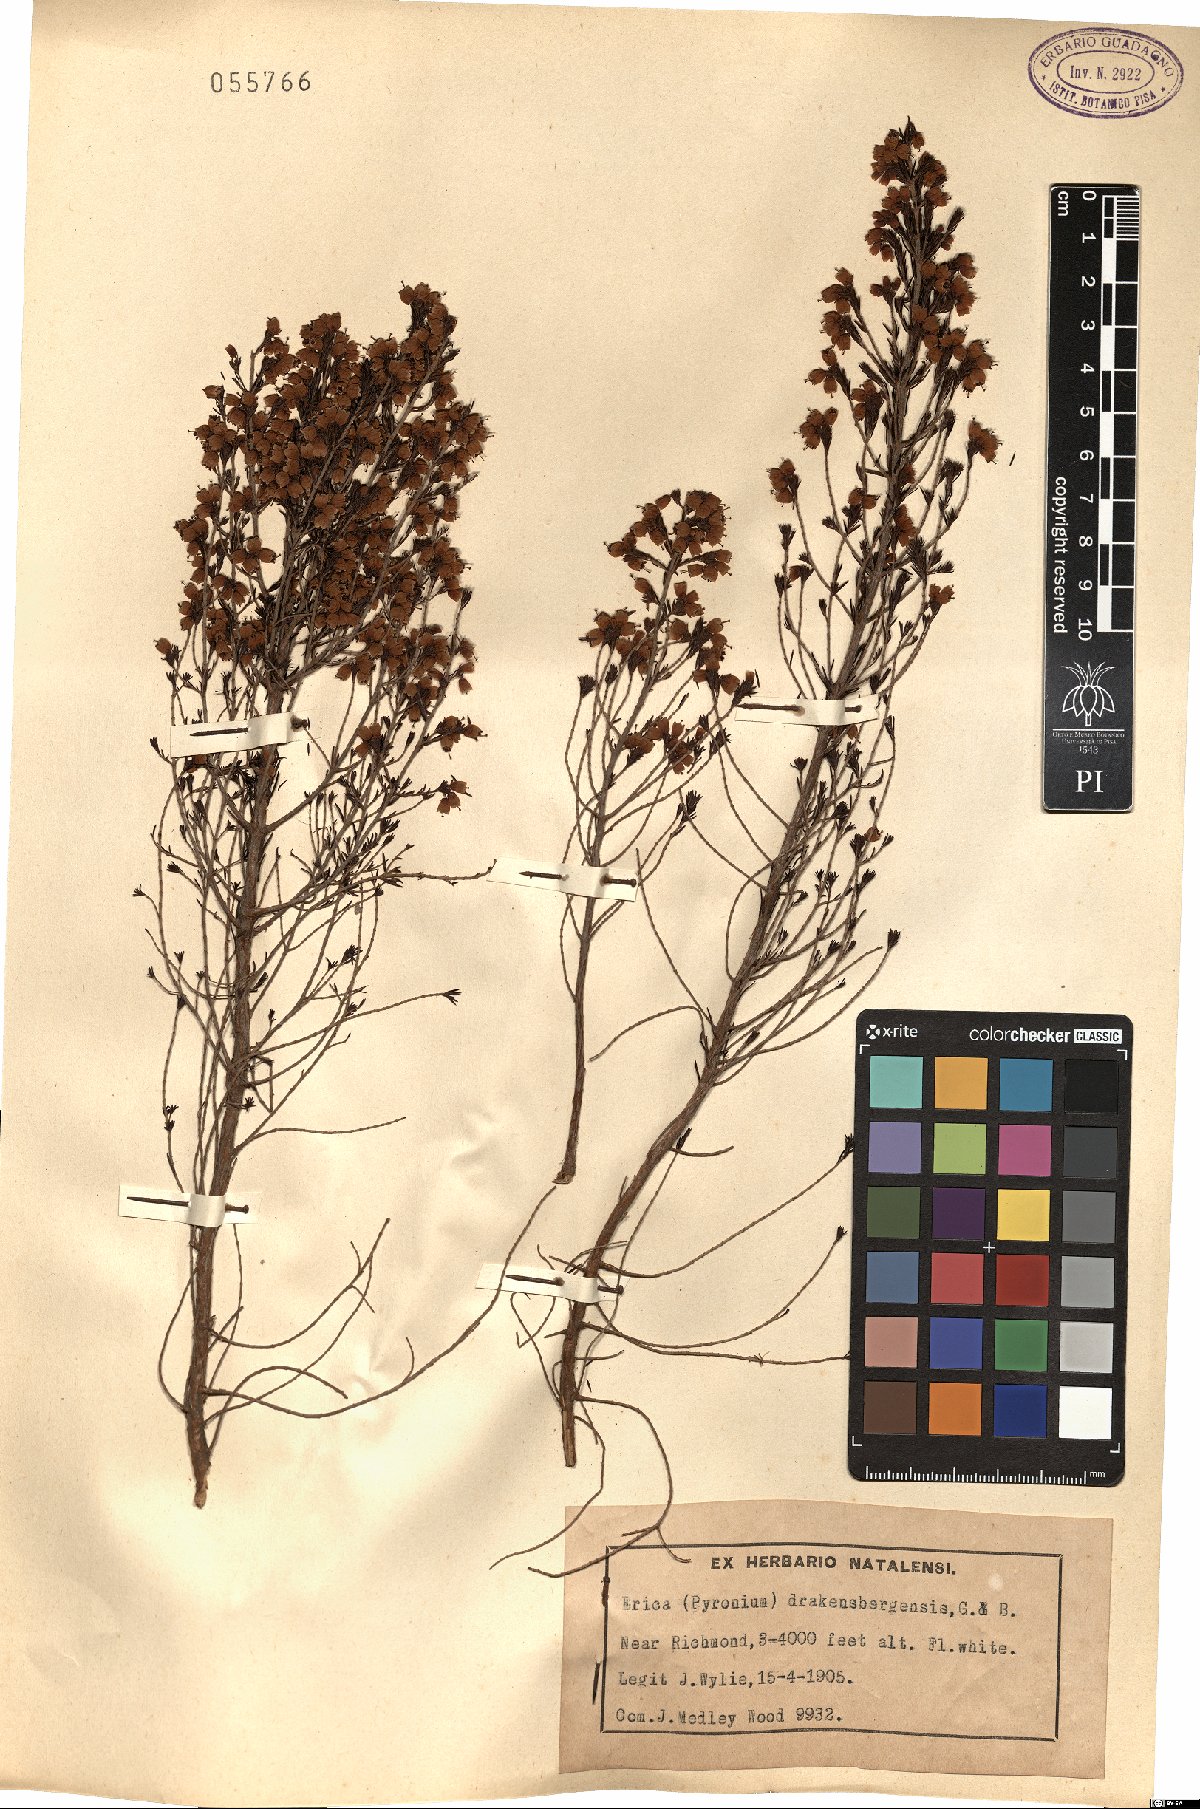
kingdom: Plantae
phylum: Tracheophyta
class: Magnoliopsida
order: Ericales
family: Ericaceae
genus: Erica
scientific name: Erica drakensbergensis
